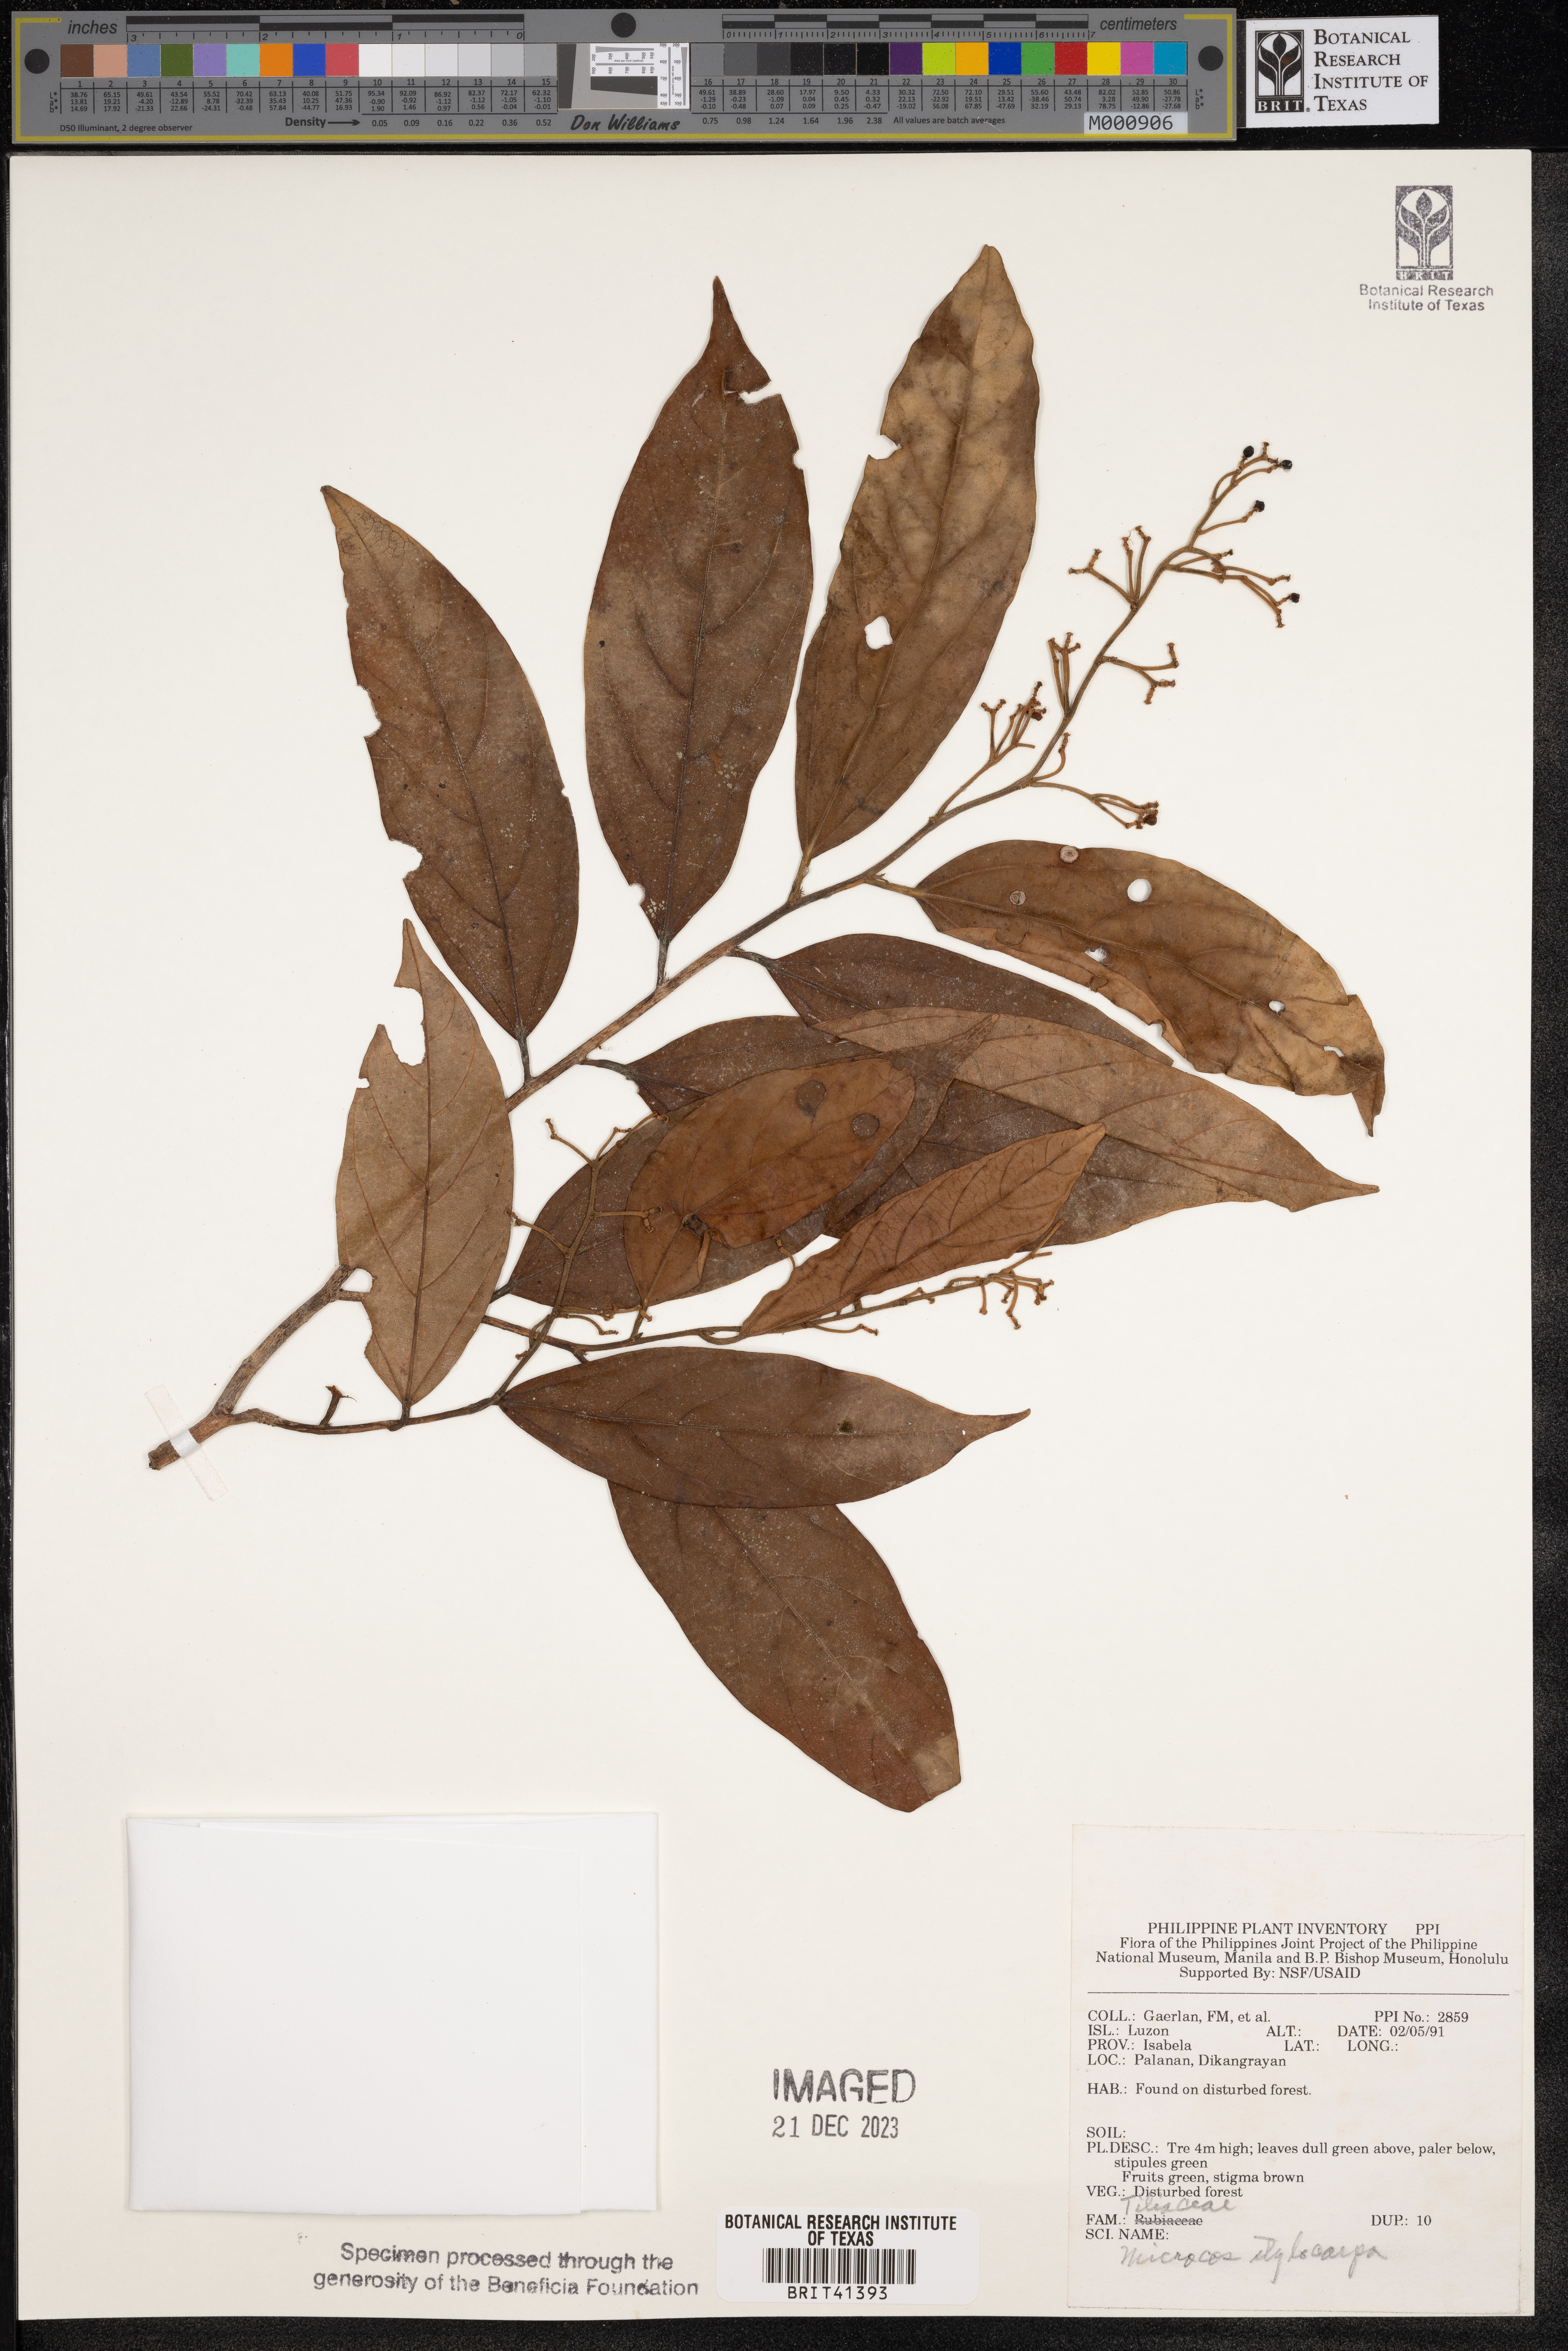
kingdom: Plantae
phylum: Tracheophyta
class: Magnoliopsida
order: Malvales
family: Malvaceae
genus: Microcos
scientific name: Microcos triflora
